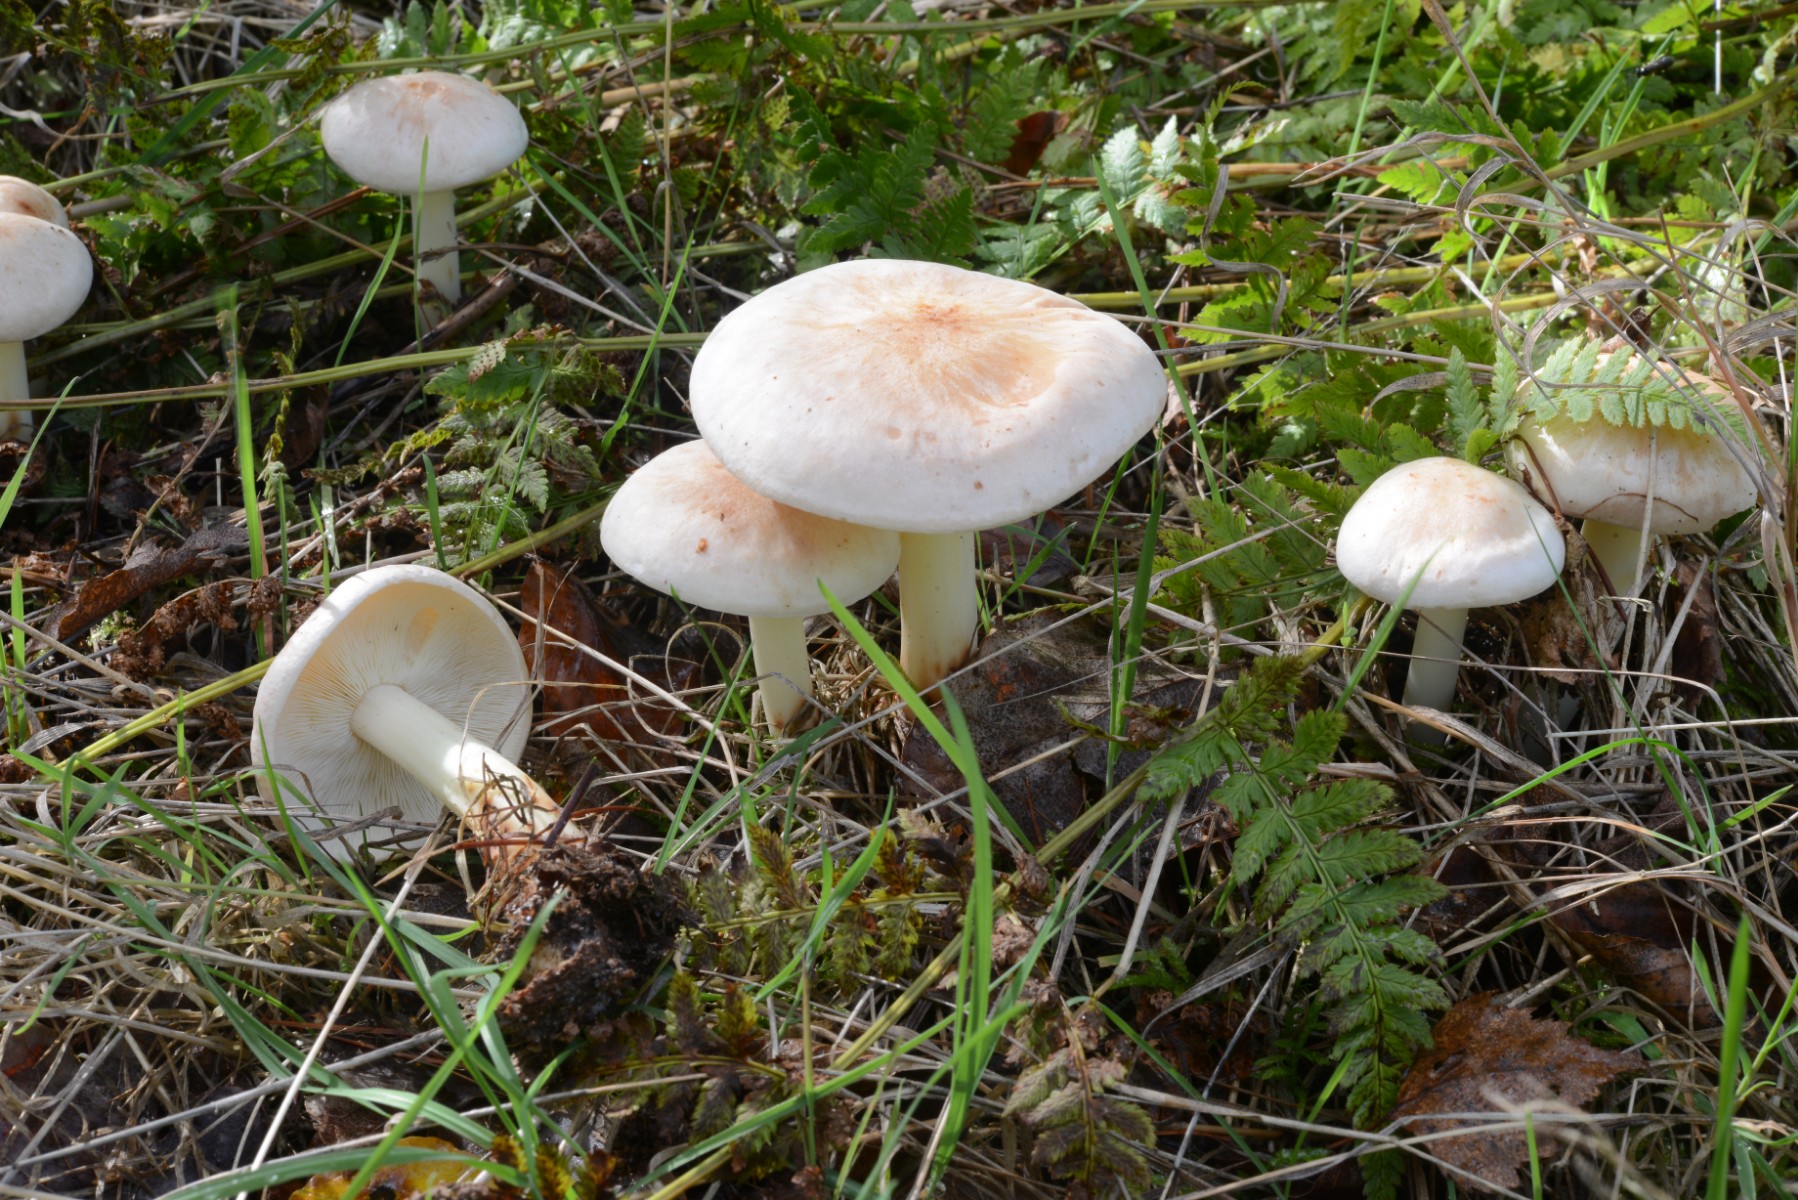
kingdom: Fungi
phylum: Basidiomycota
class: Agaricomycetes
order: Agaricales
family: Omphalotaceae
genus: Rhodocollybia
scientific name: Rhodocollybia maculata
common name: plettet fladhat
